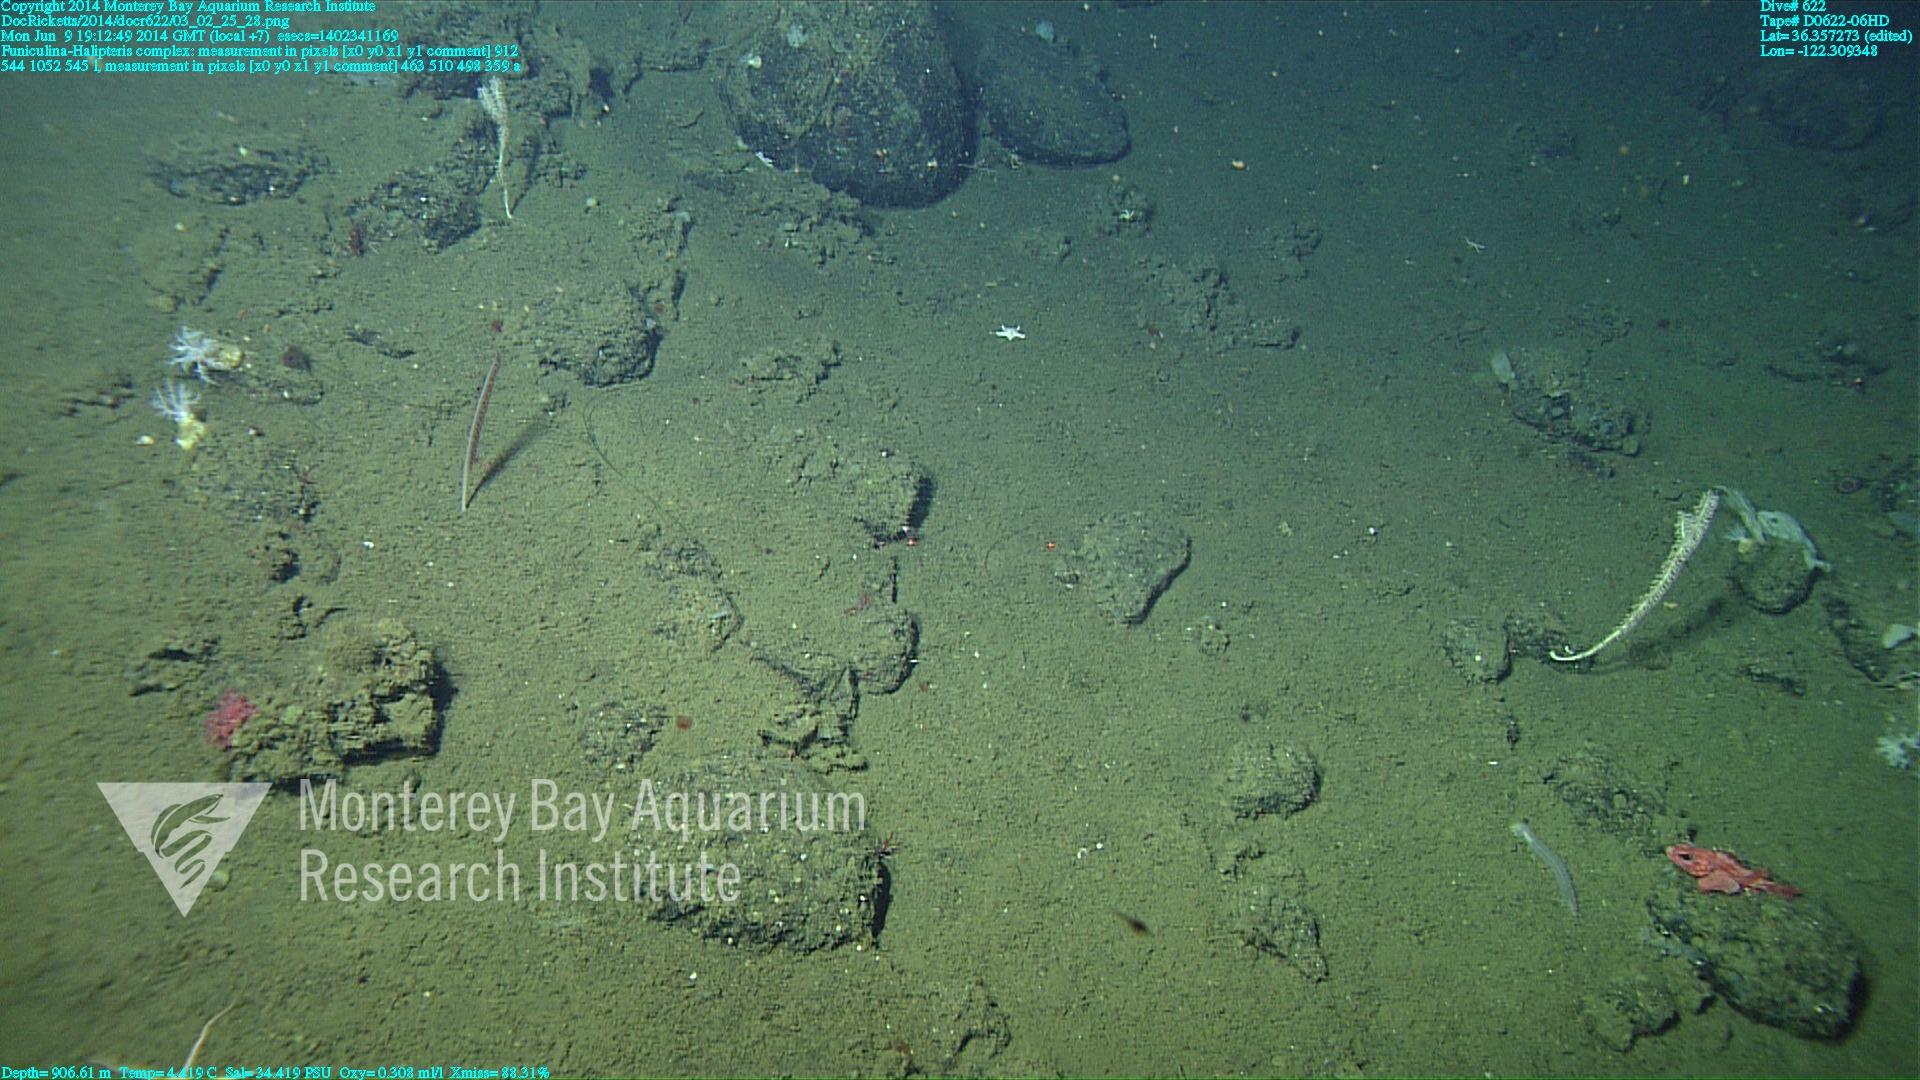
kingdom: Animalia
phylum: Cnidaria
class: Anthozoa
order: Scleralcyonacea
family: Funiculinidae
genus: Funiculina
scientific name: Funiculina
